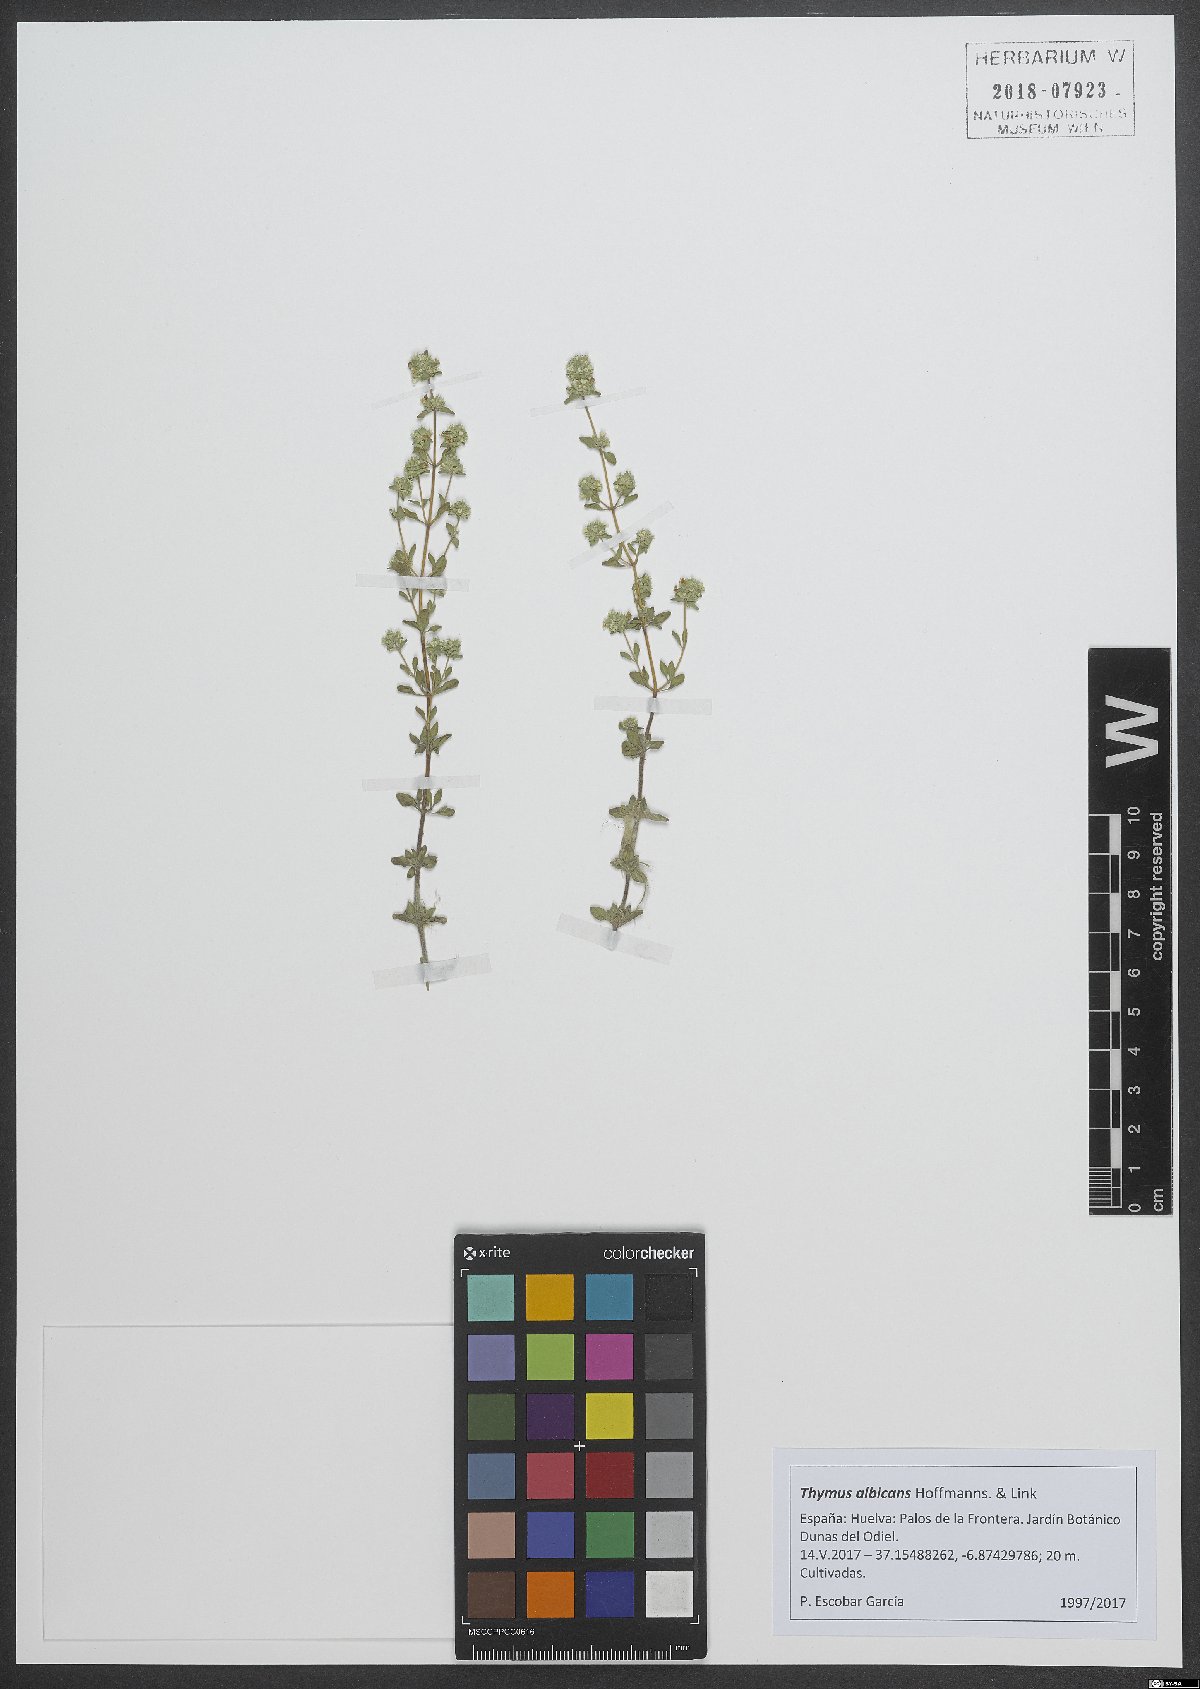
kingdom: Plantae
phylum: Tracheophyta
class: Magnoliopsida
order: Lamiales
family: Lamiaceae
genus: Thymus
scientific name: Thymus albicans
